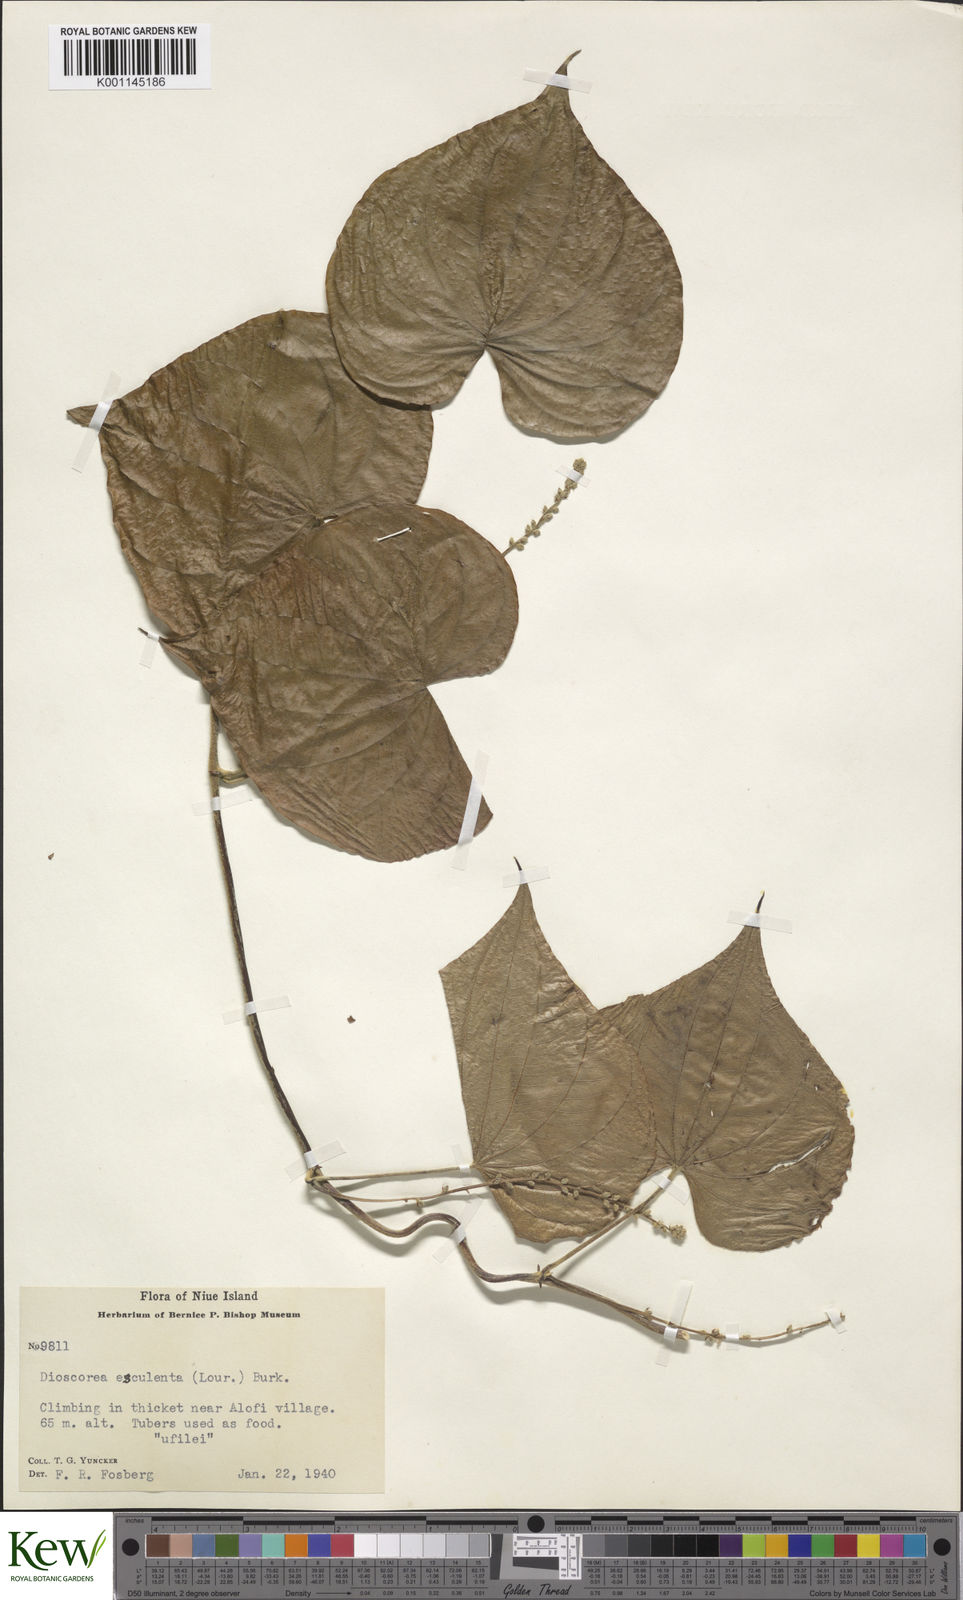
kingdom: Plantae
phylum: Tracheophyta
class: Liliopsida
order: Dioscoreales
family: Dioscoreaceae
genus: Dioscorea
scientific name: Dioscorea esculenta
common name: Chinese yam
